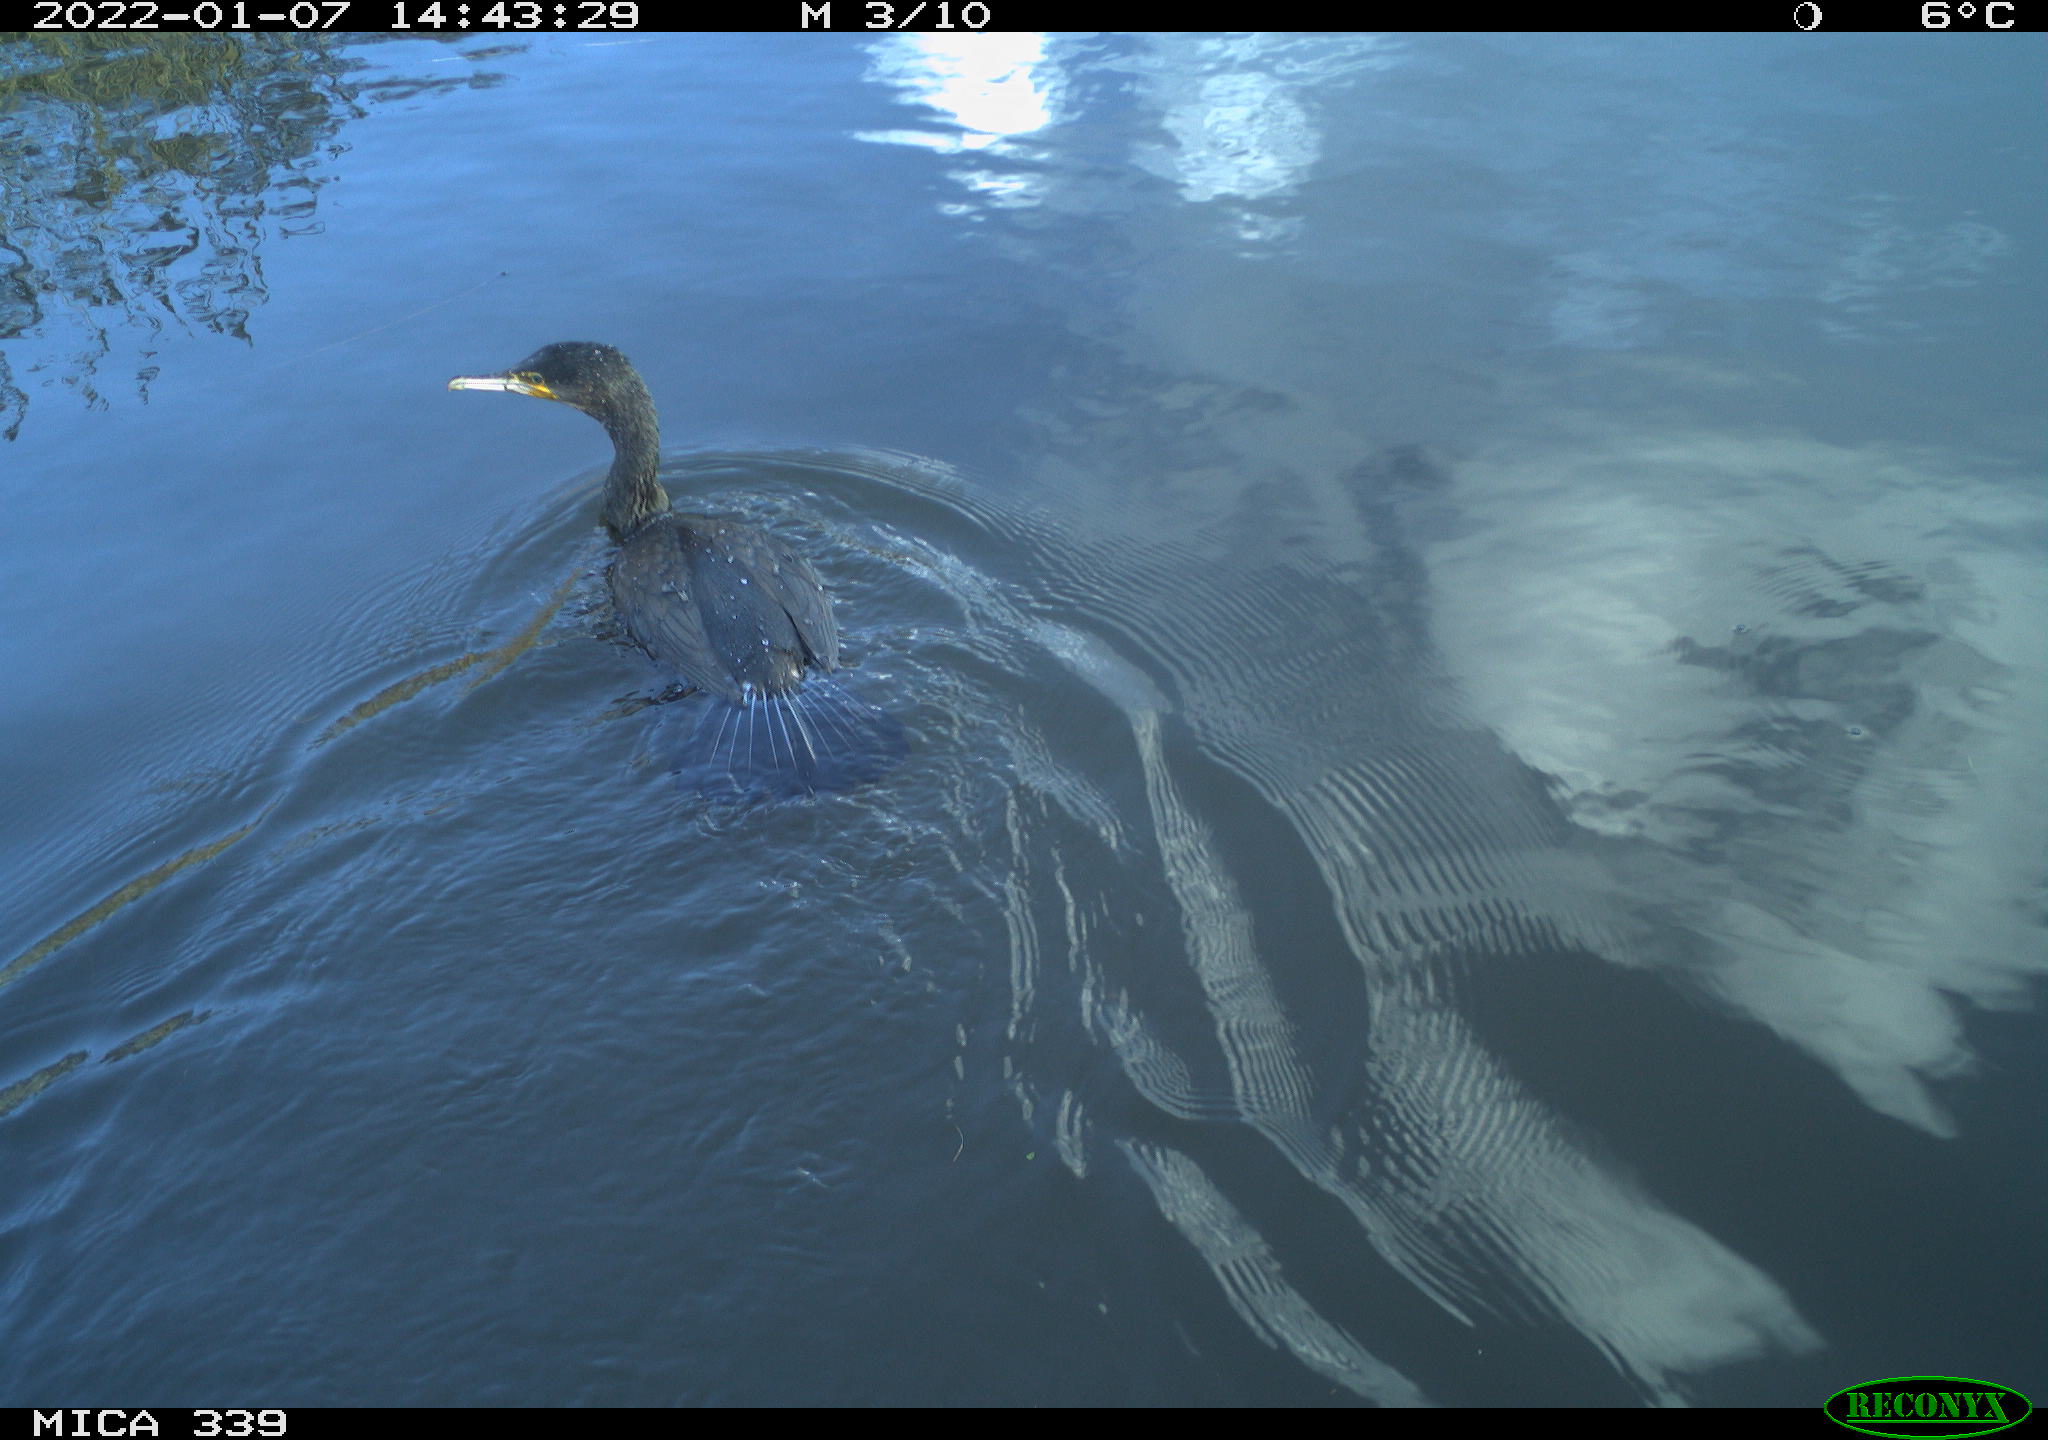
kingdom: Animalia
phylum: Chordata
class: Aves
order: Suliformes
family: Phalacrocoracidae
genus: Phalacrocorax
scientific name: Phalacrocorax carbo
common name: Great cormorant
